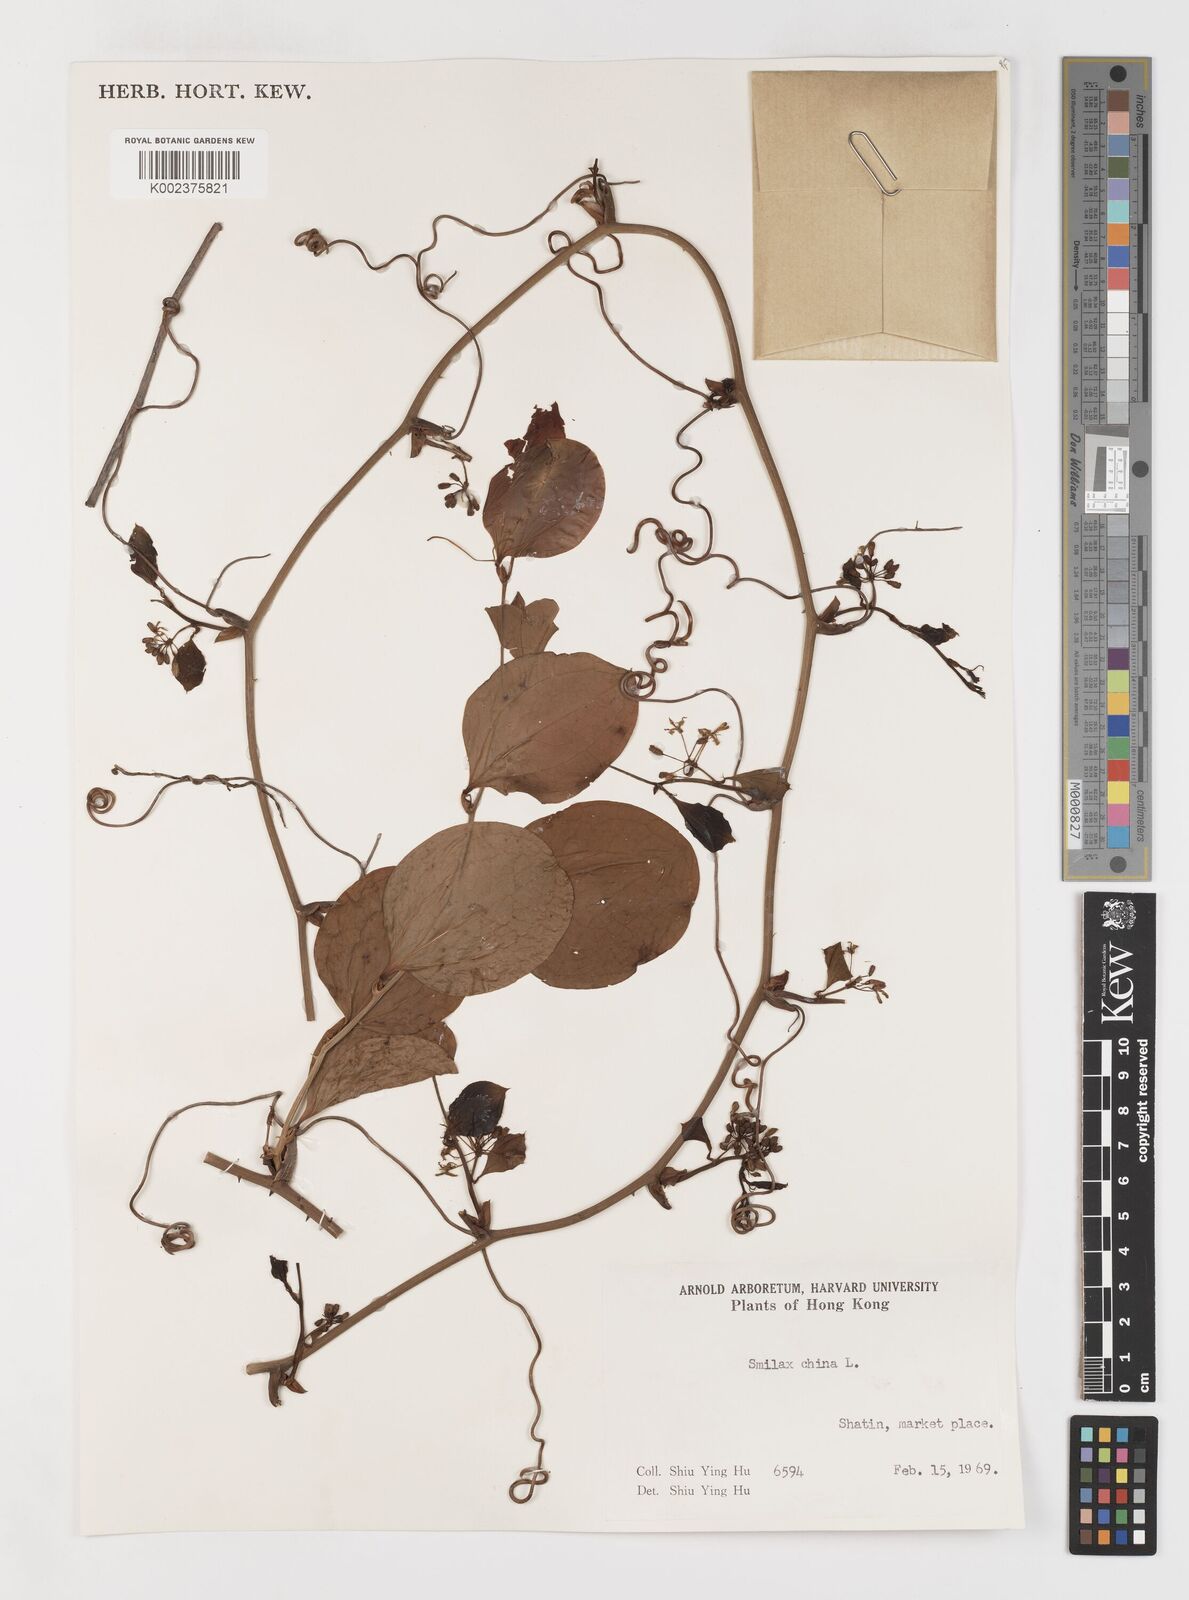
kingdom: Plantae
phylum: Tracheophyta
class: Liliopsida
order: Liliales
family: Smilacaceae
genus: Smilax
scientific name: Smilax china
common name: Chinaroot
